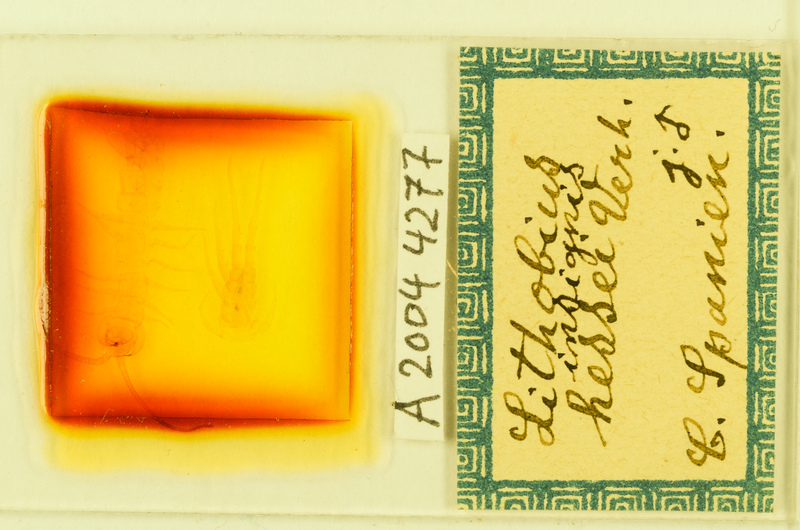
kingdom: Animalia
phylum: Arthropoda
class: Chilopoda
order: Lithobiomorpha
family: Lithobiidae
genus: Lithobius
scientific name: Lithobius variegatus
